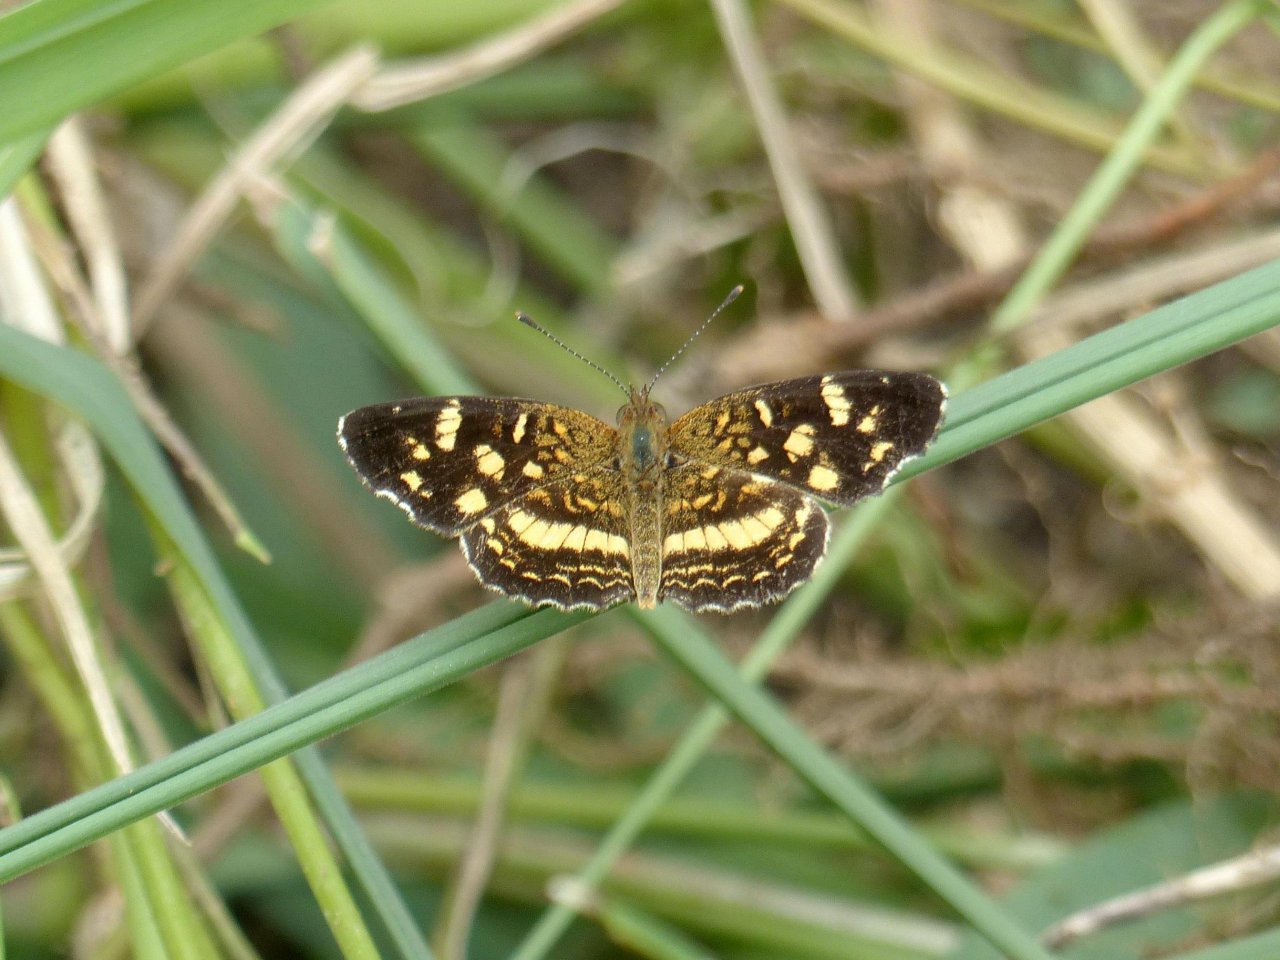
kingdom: Animalia
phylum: Arthropoda
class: Insecta
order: Lepidoptera
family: Nymphalidae
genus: Anthanassa
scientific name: Anthanassa tulcis
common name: Pale-banded Crescent
